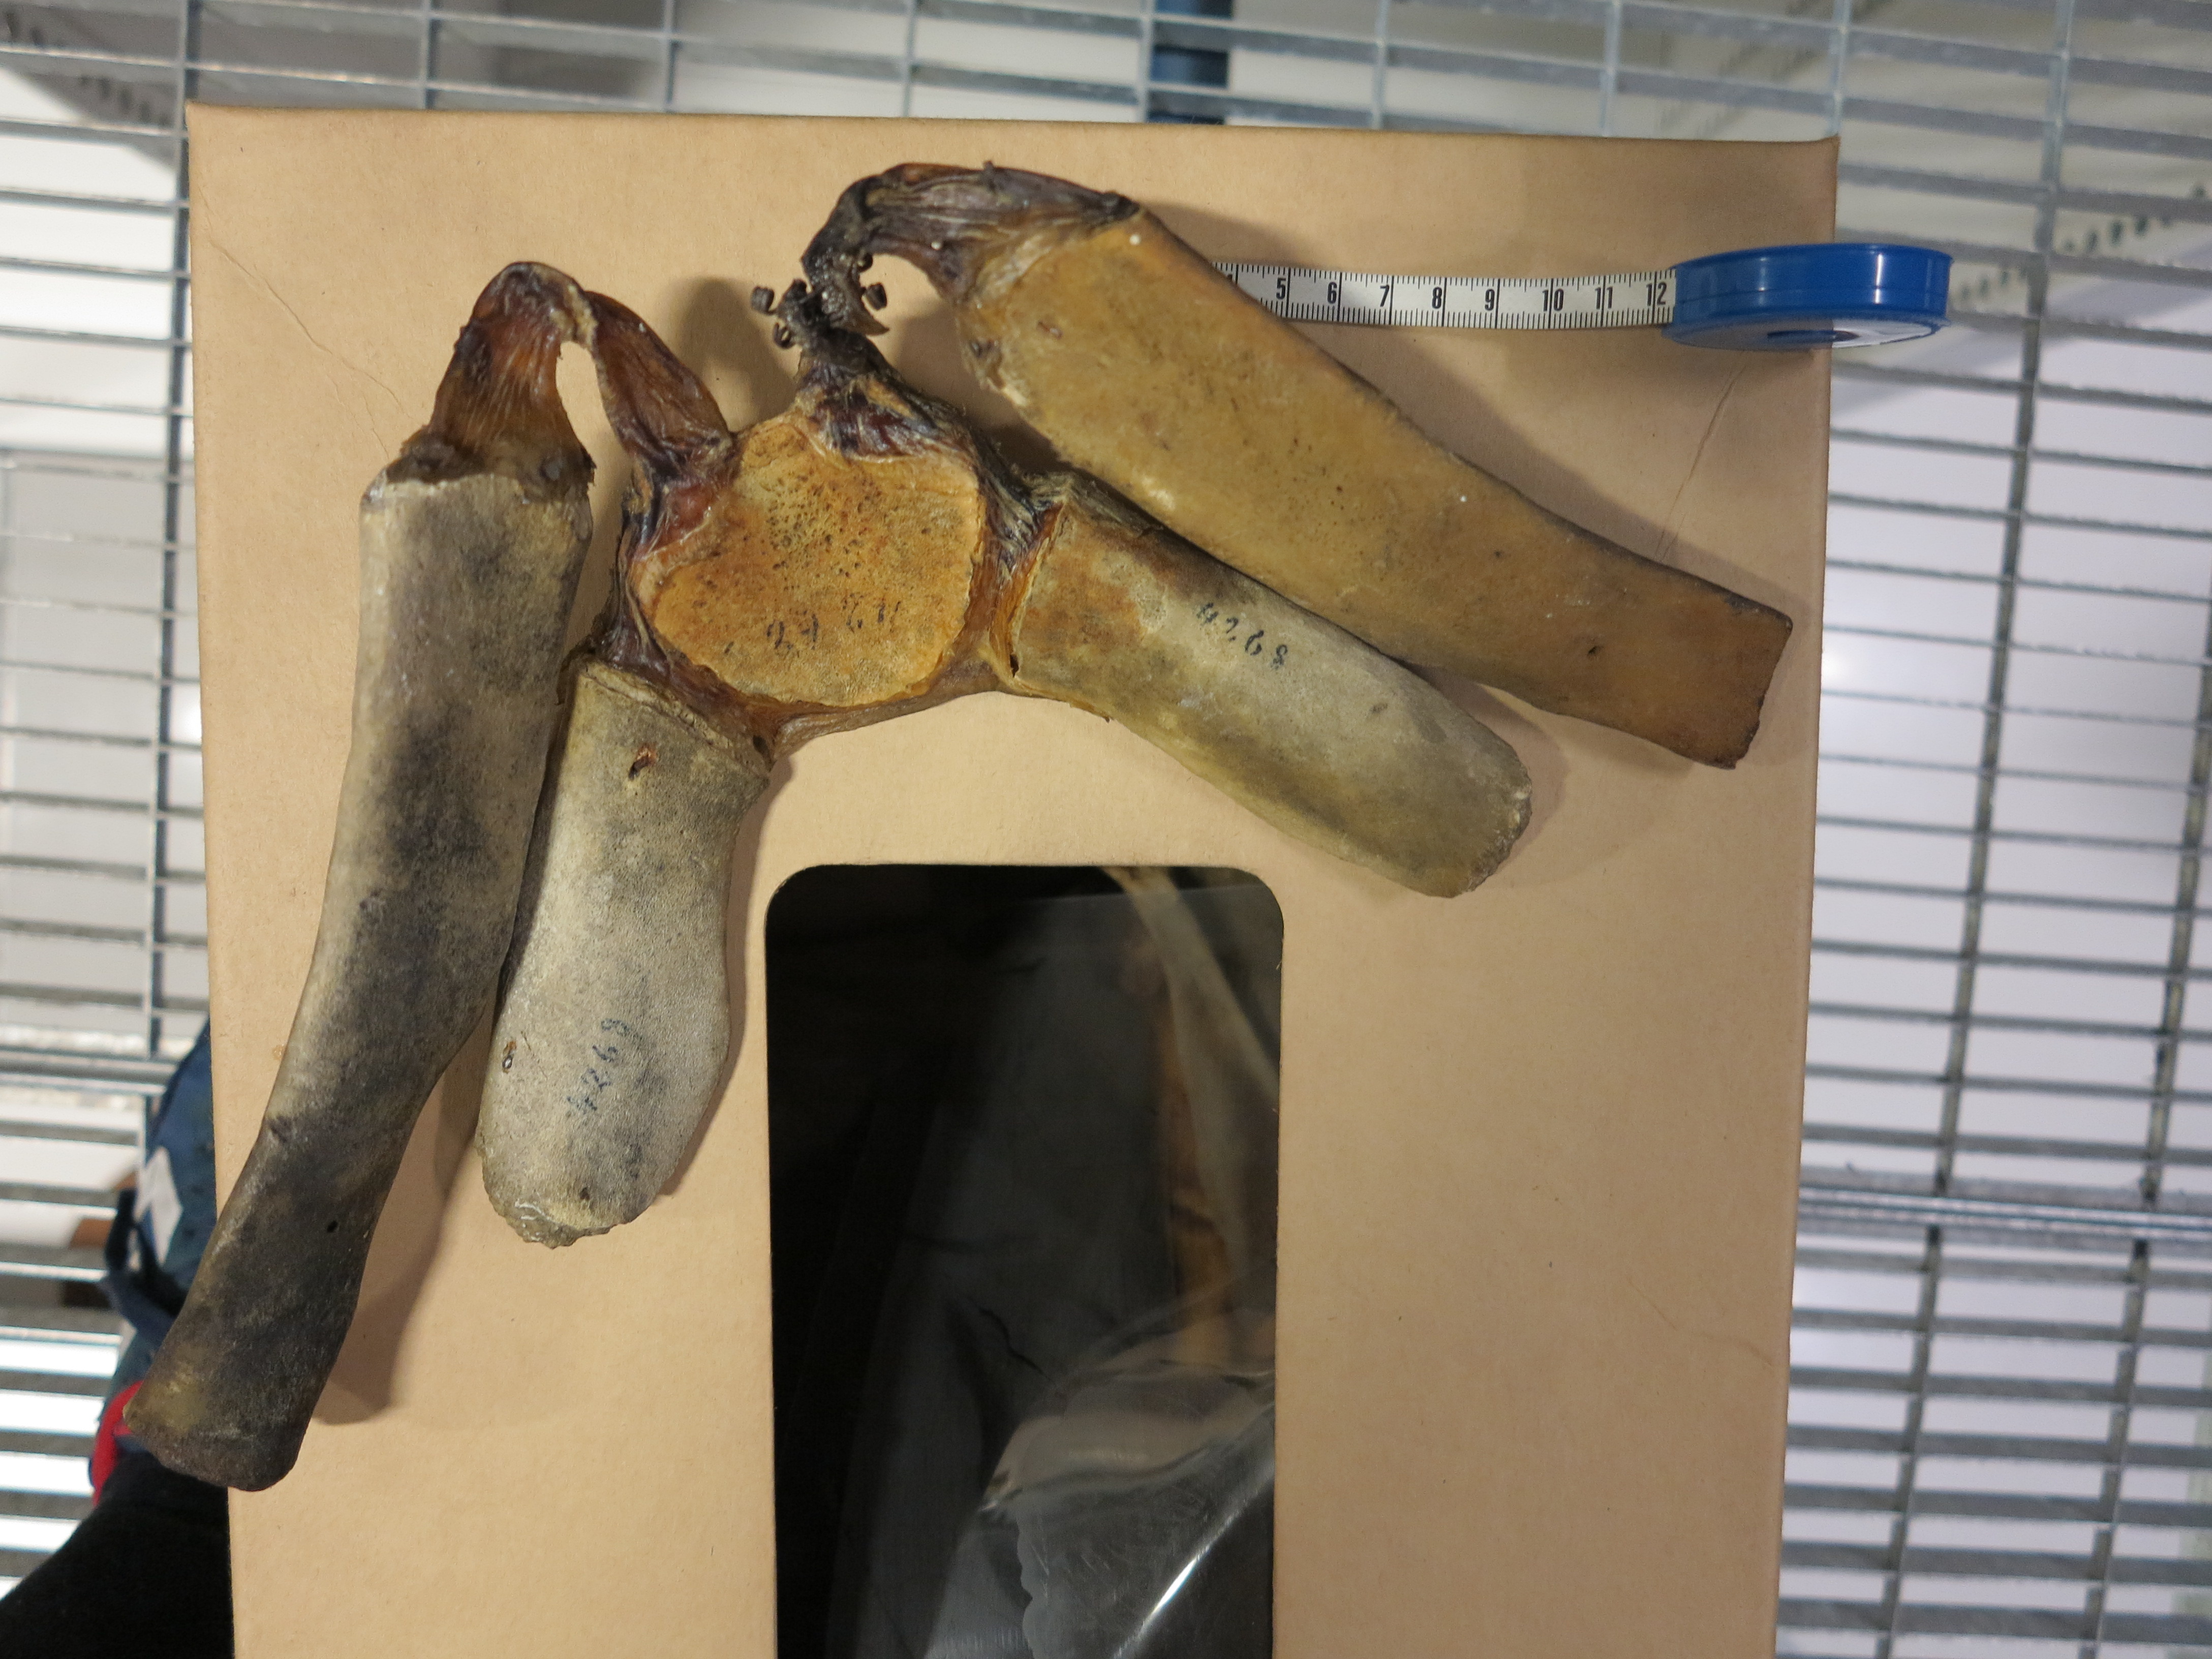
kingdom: Animalia
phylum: Chordata
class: Mammalia
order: Cetacea
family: Hyperoodontidae
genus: Hyperoodon
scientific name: Hyperoodon ampullatus
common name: Northern bottlenose whale
